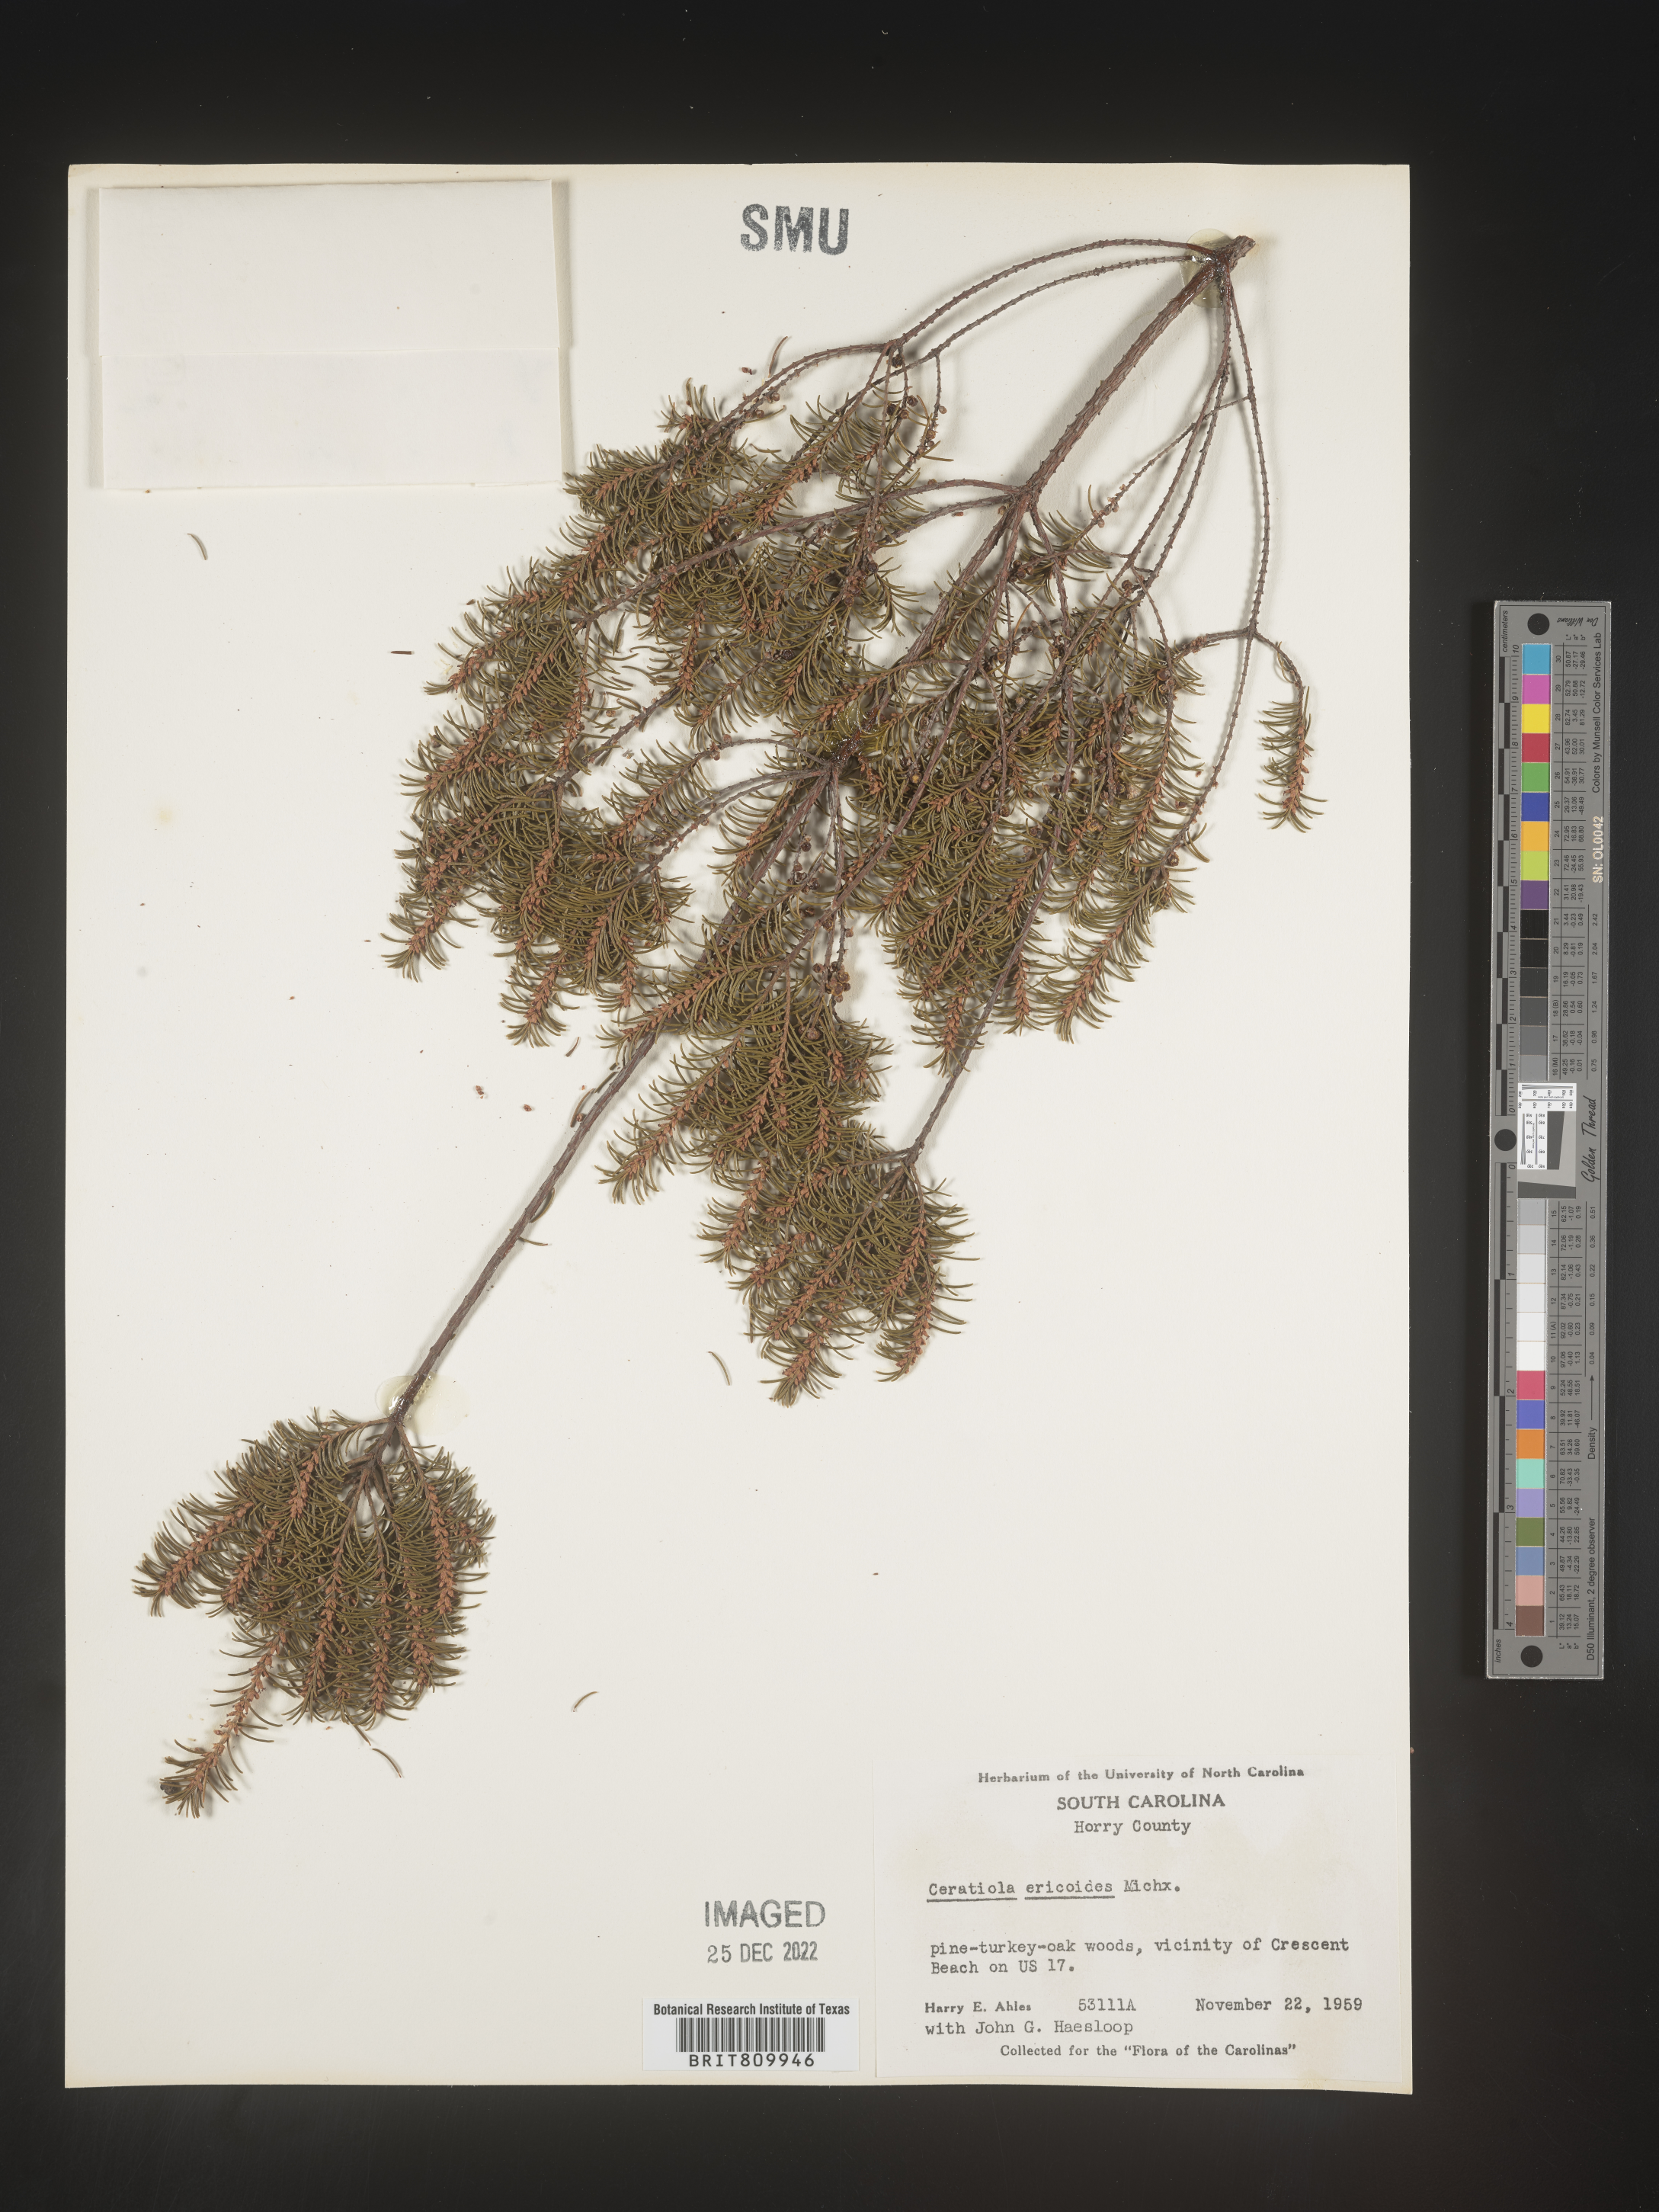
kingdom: Plantae
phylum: Tracheophyta
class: Magnoliopsida
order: Ericales
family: Ericaceae
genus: Ceratiola
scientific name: Ceratiola ericoides
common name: Sandhill-rosemary
